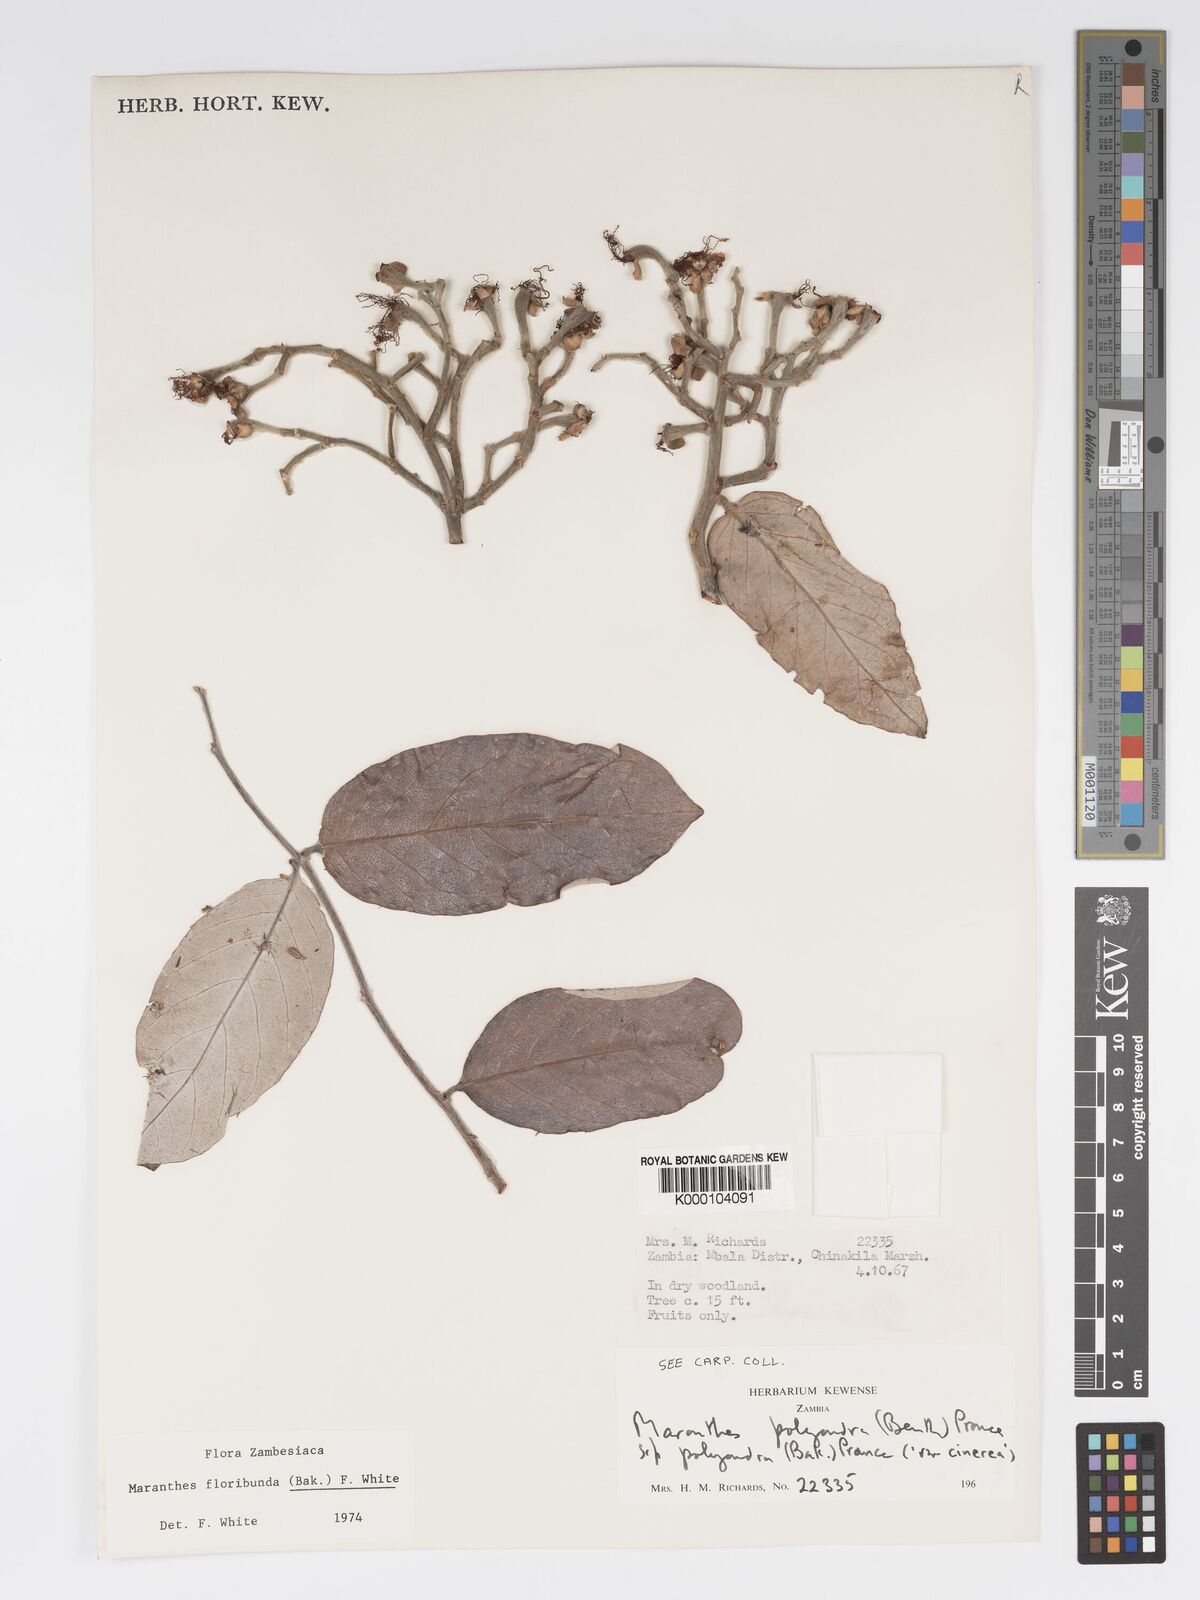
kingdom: Plantae
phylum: Tracheophyta
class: Magnoliopsida
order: Malpighiales
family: Chrysobalanaceae
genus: Maranthes
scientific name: Maranthes floribunda
